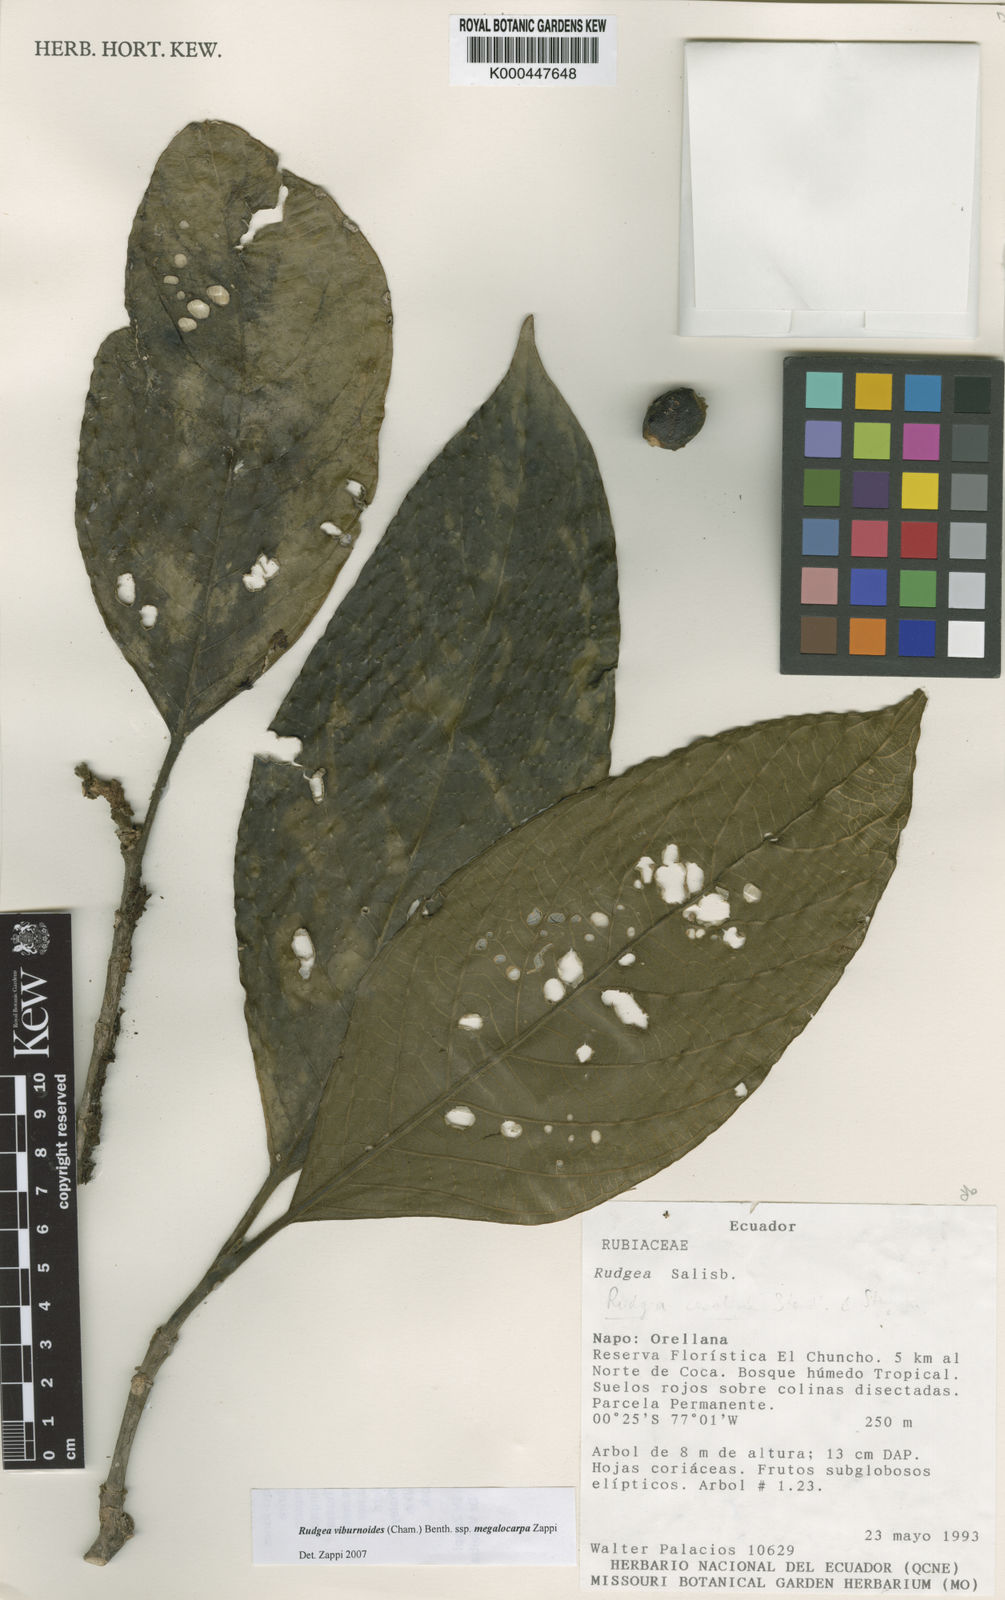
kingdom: Plantae
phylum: Tracheophyta
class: Magnoliopsida
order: Gentianales
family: Rubiaceae
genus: Rudgea
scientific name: Rudgea viburnoides
